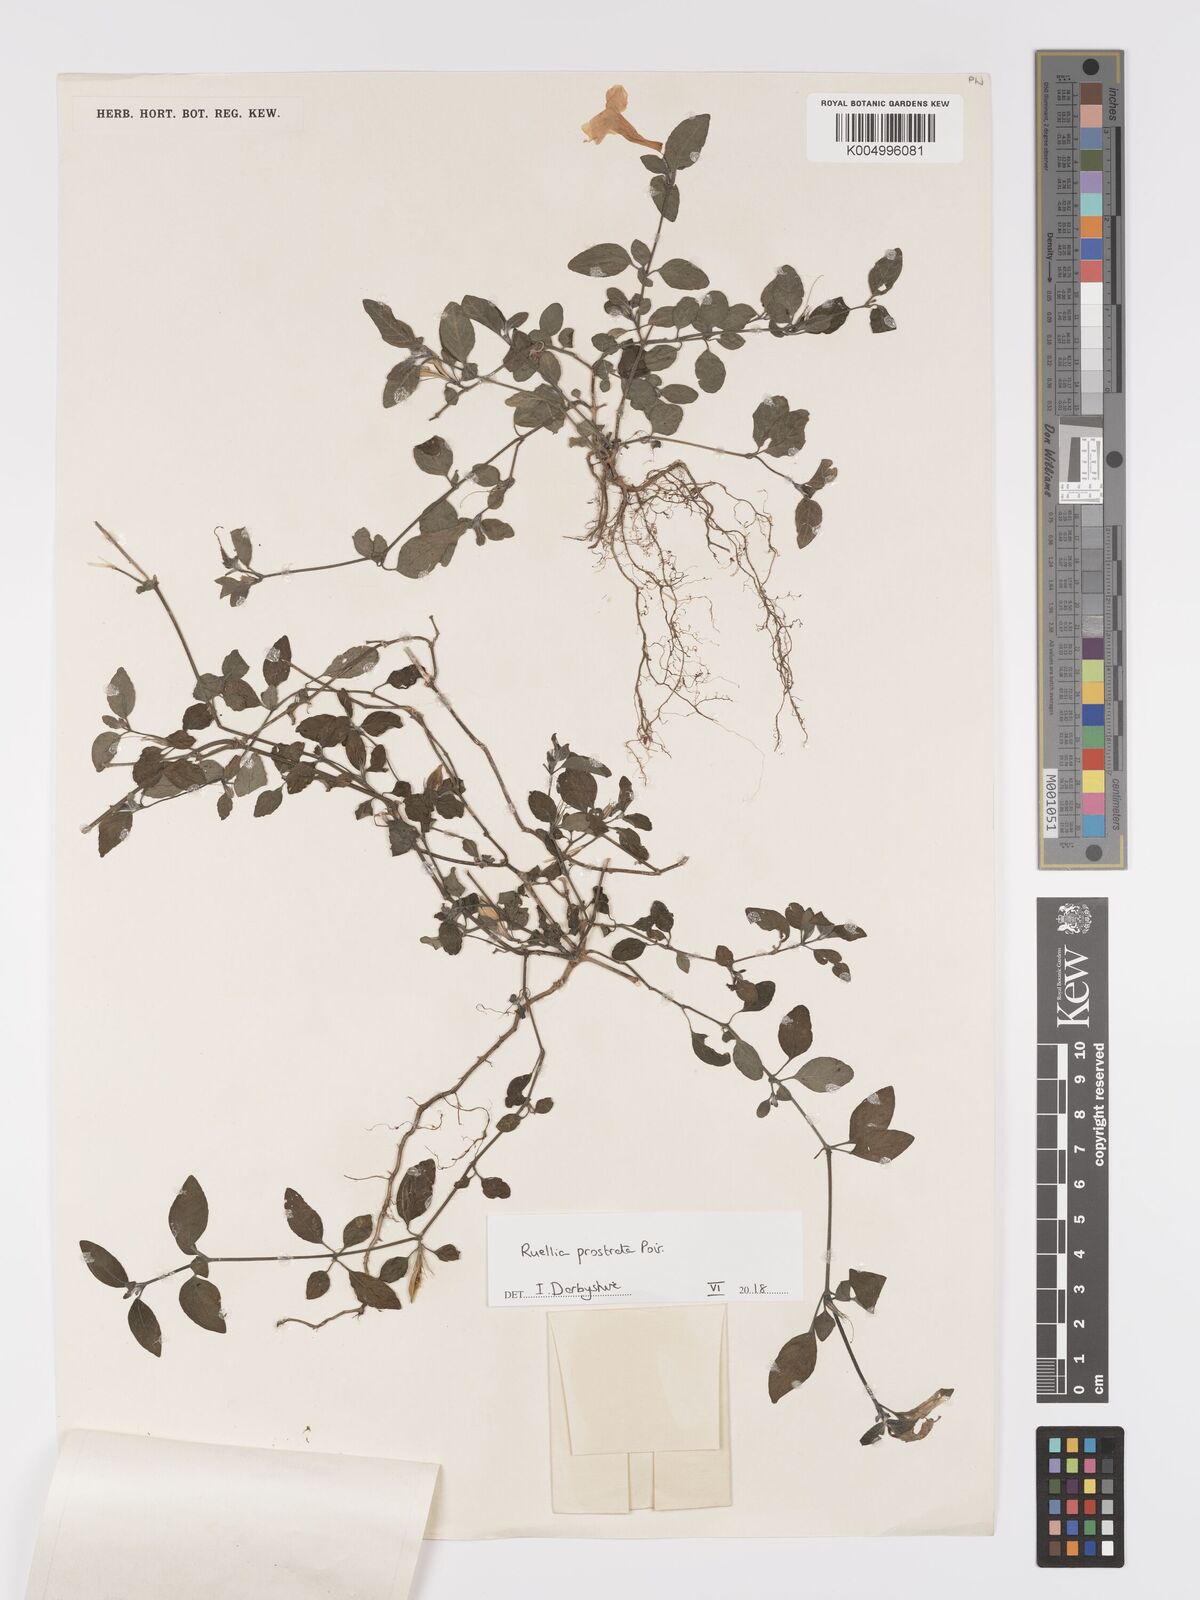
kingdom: Plantae
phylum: Tracheophyta
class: Magnoliopsida
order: Lamiales
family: Acanthaceae
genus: Ruellia
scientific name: Ruellia
